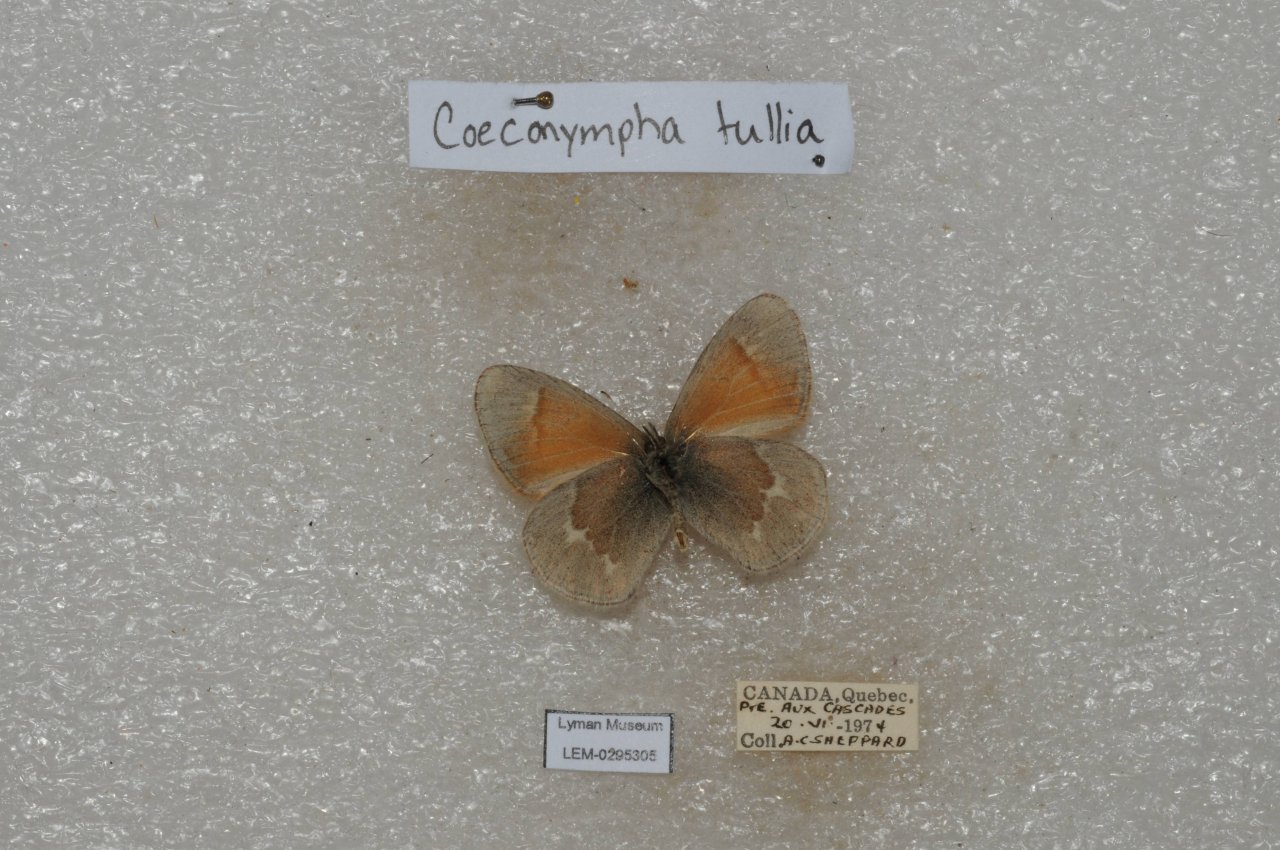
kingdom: Animalia
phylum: Arthropoda
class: Insecta
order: Lepidoptera
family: Nymphalidae
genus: Coenonympha
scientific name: Coenonympha tullia
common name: Large Heath
